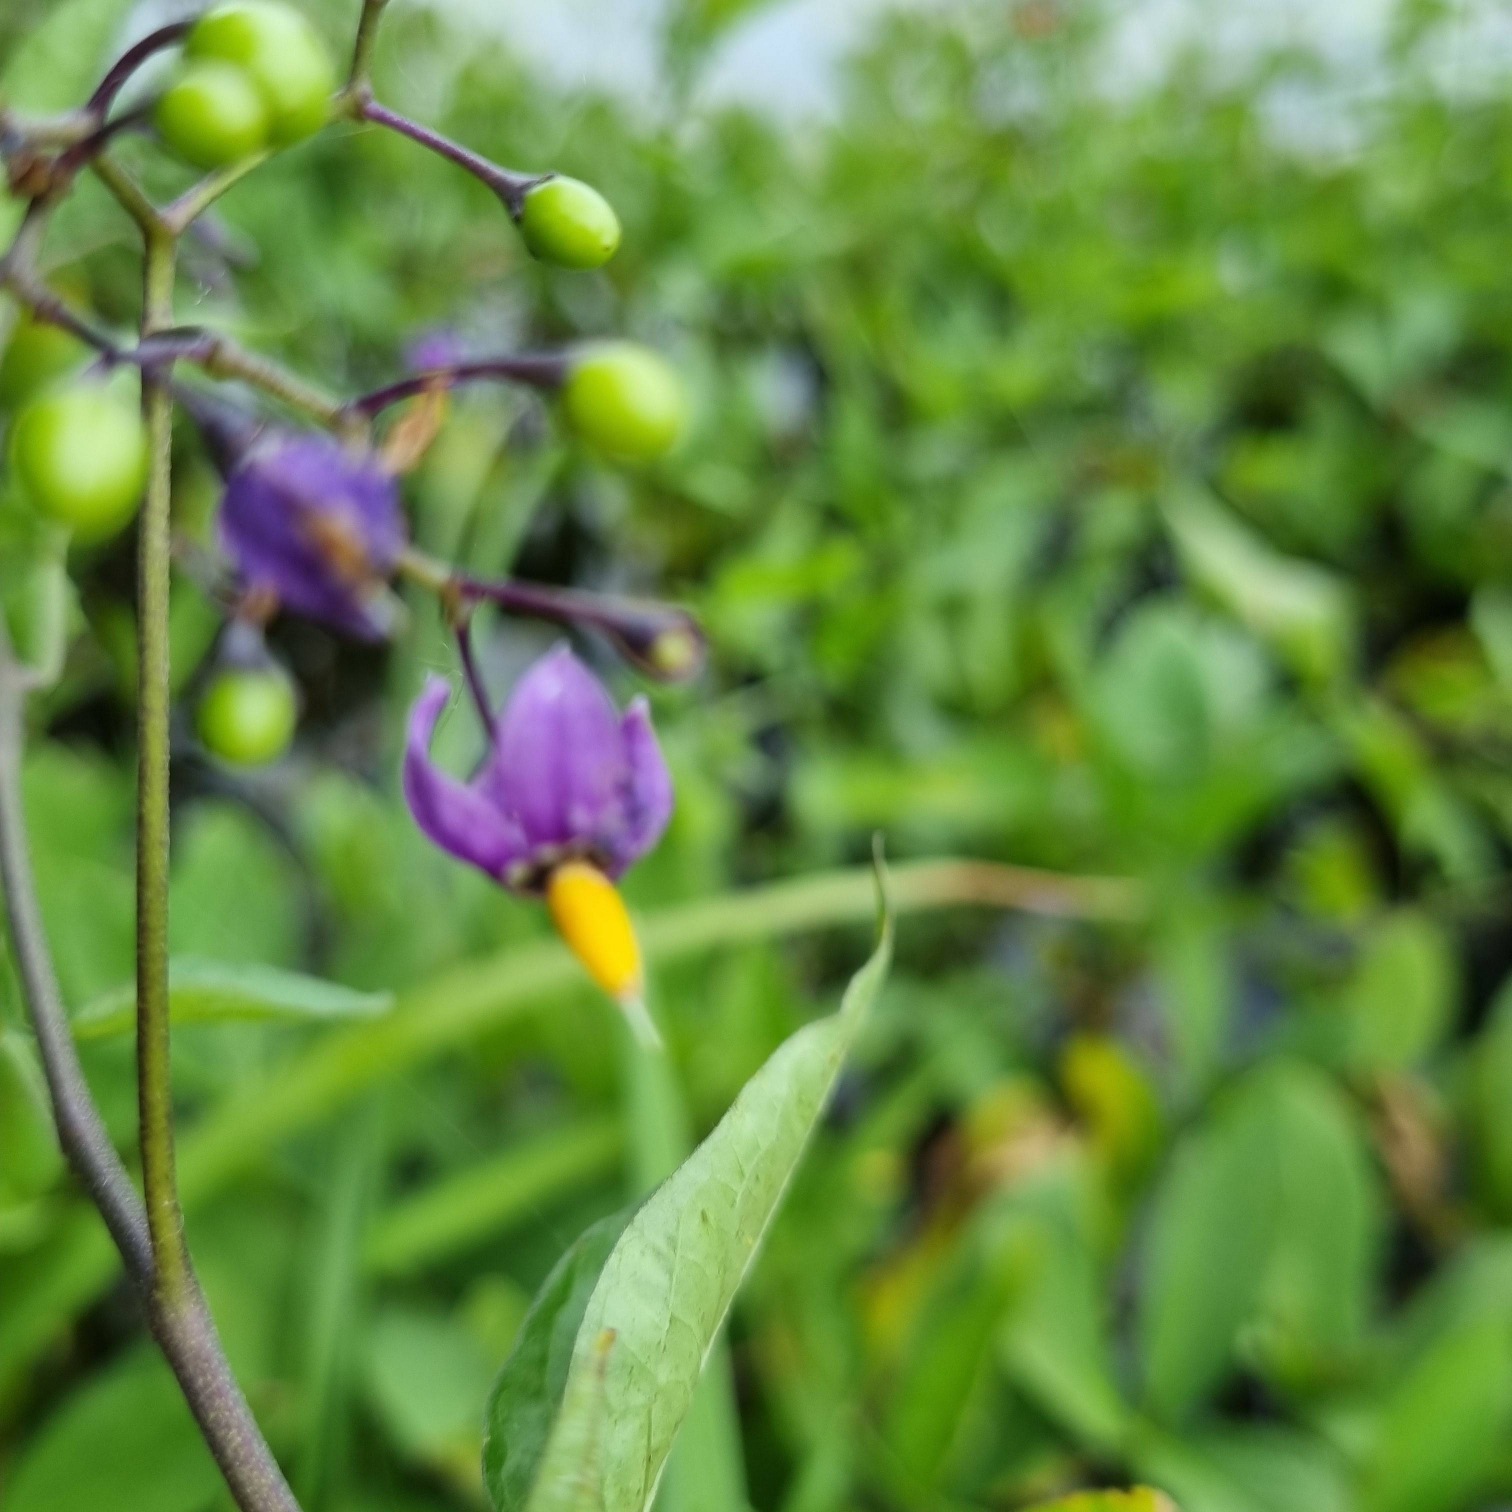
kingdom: Plantae
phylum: Tracheophyta
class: Magnoliopsida
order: Solanales
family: Solanaceae
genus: Solanum
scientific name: Solanum dulcamara
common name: Bittersød natskygge
